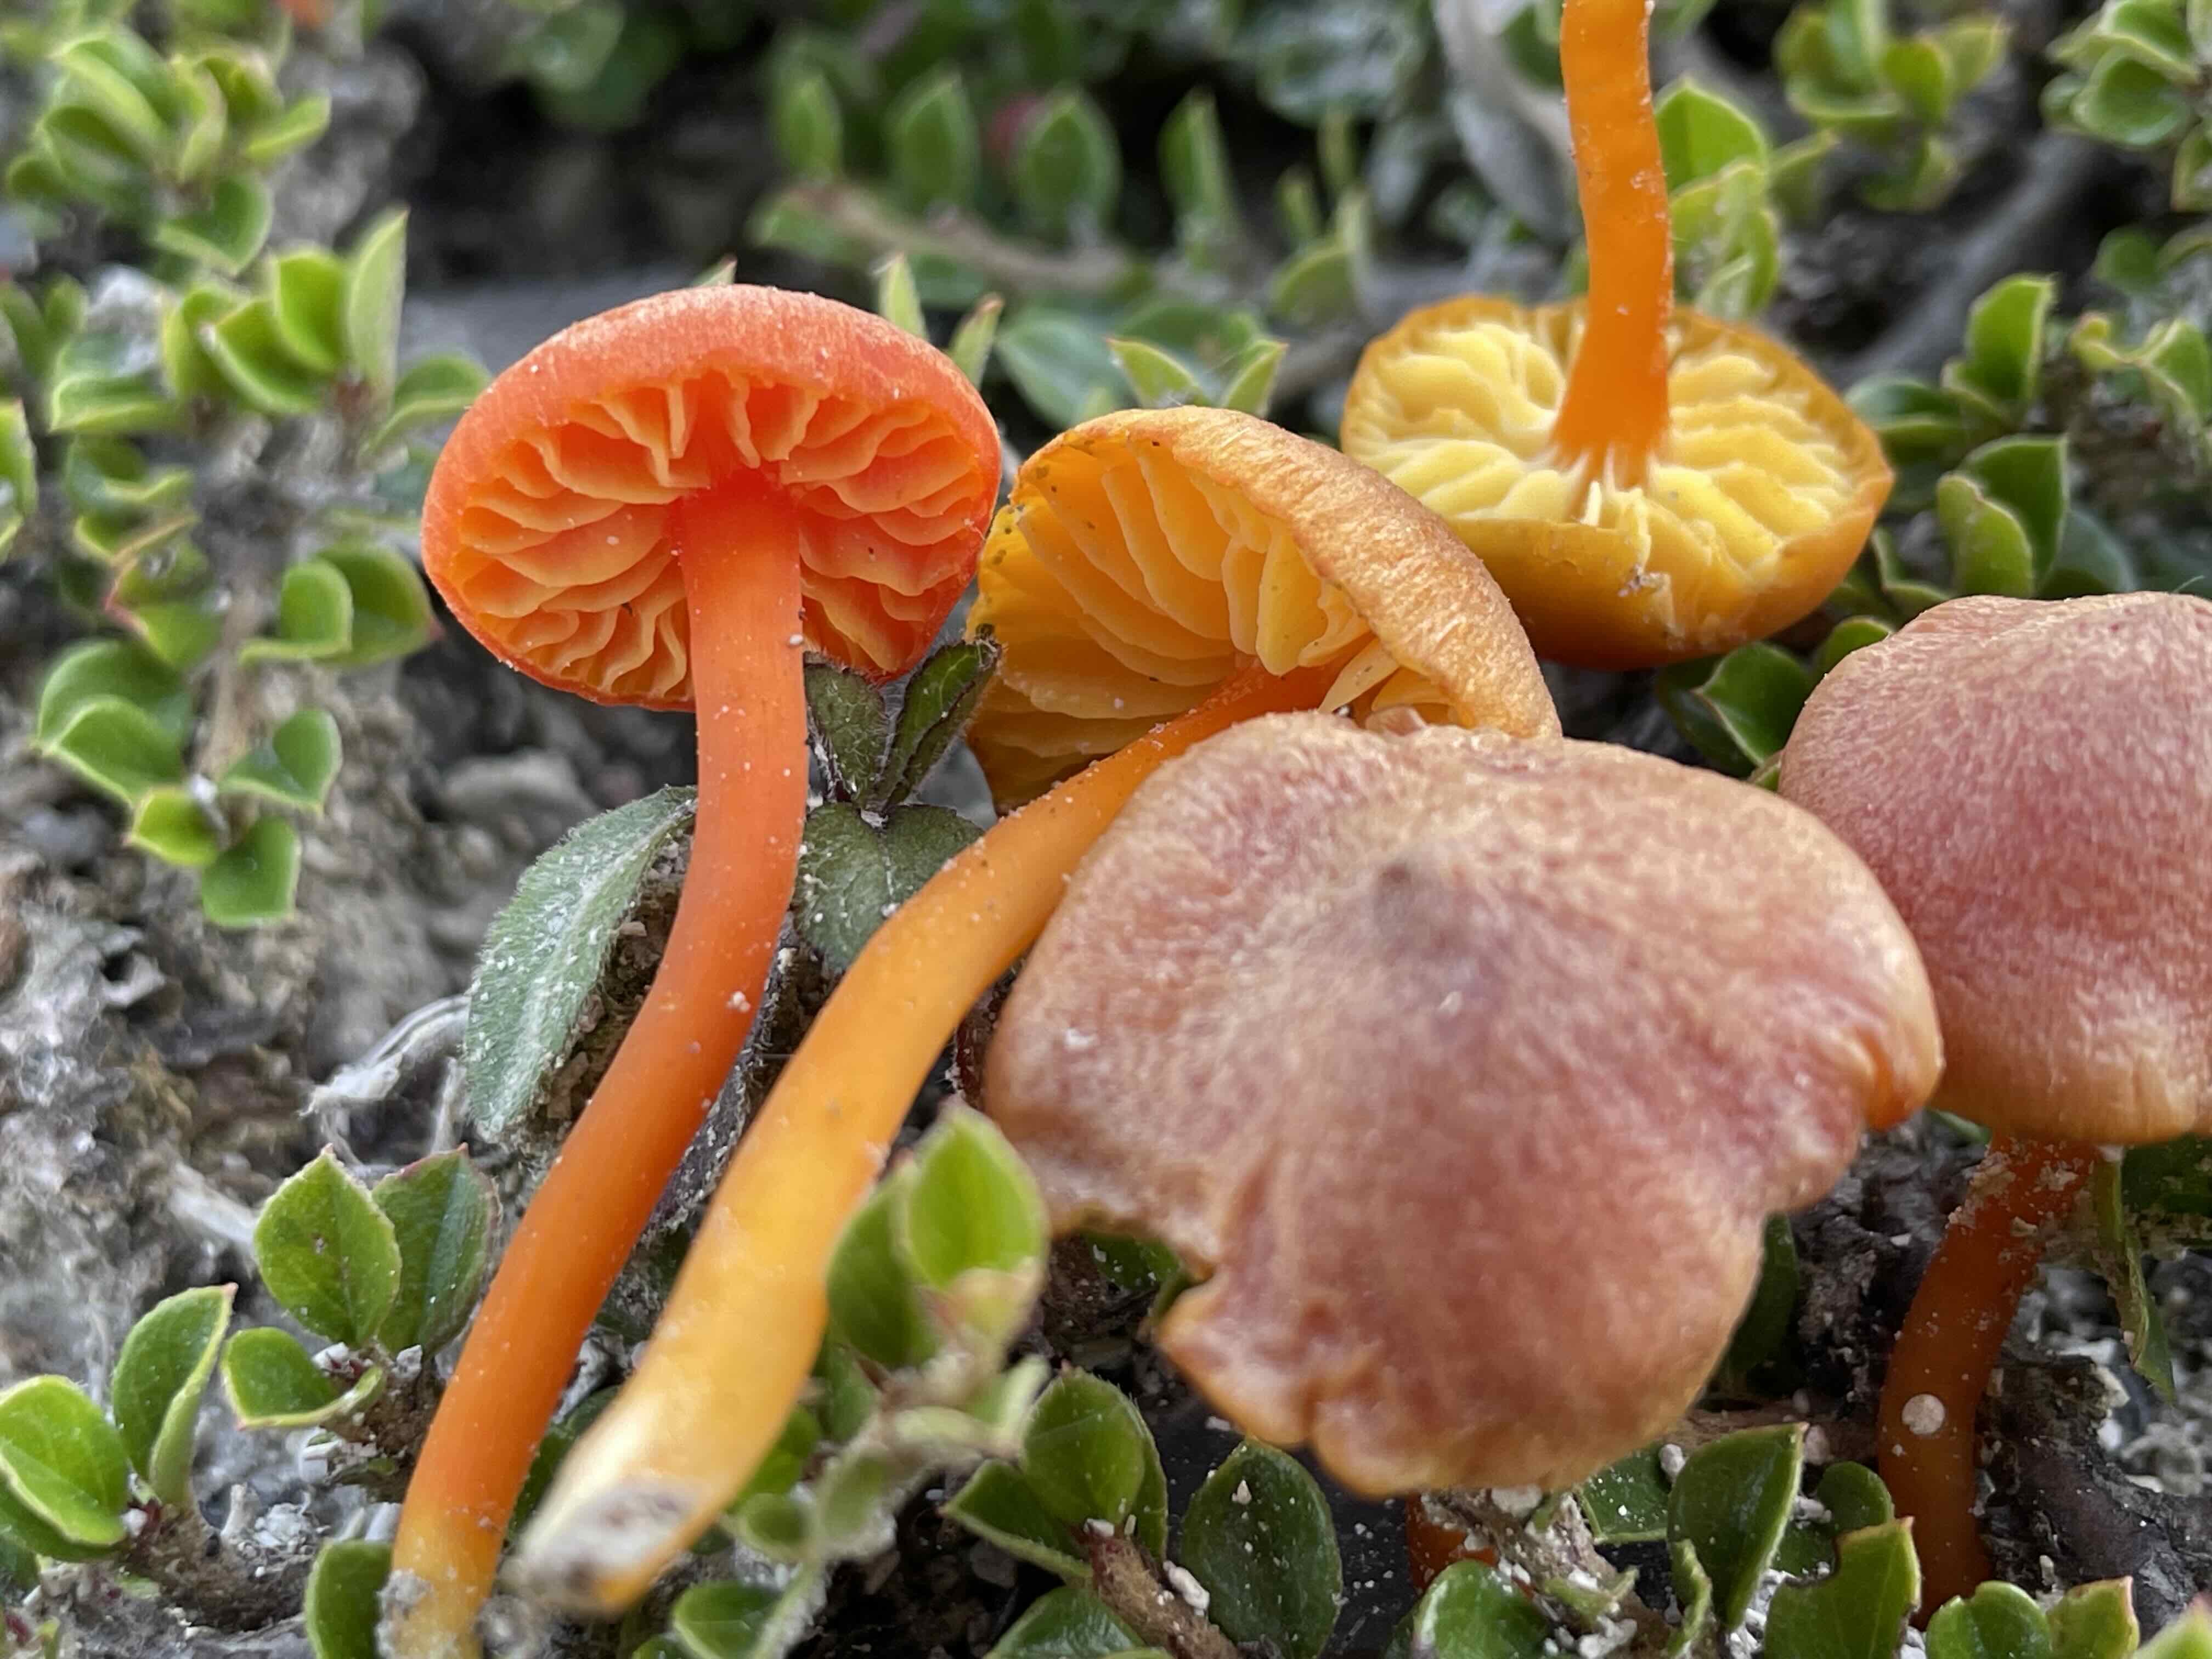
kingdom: Fungi
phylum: Basidiomycota
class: Agaricomycetes
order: Agaricales
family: Hygrophoraceae
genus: Hygrocybe
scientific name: Hygrocybe calciphila
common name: kalk-vokshat
